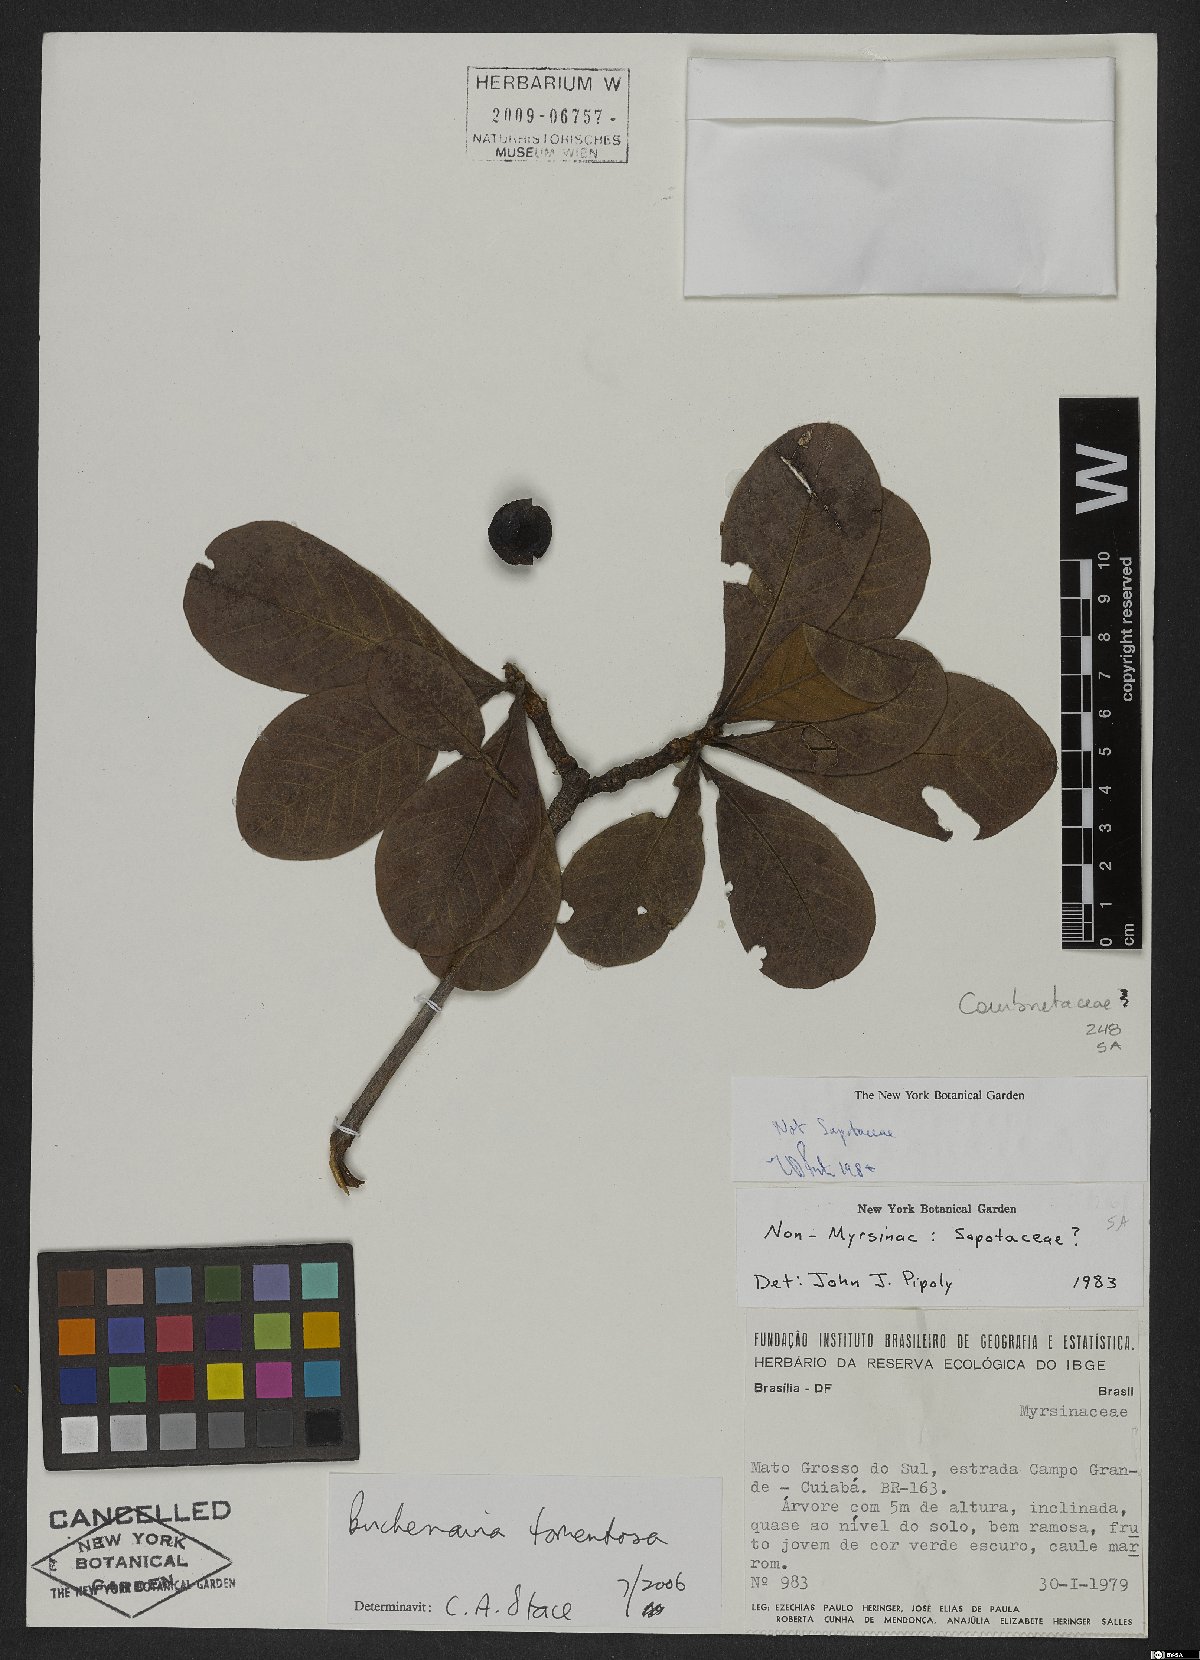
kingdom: Plantae
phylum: Tracheophyta
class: Magnoliopsida
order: Myrtales
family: Combretaceae
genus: Terminalia
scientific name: Terminalia corrugata
